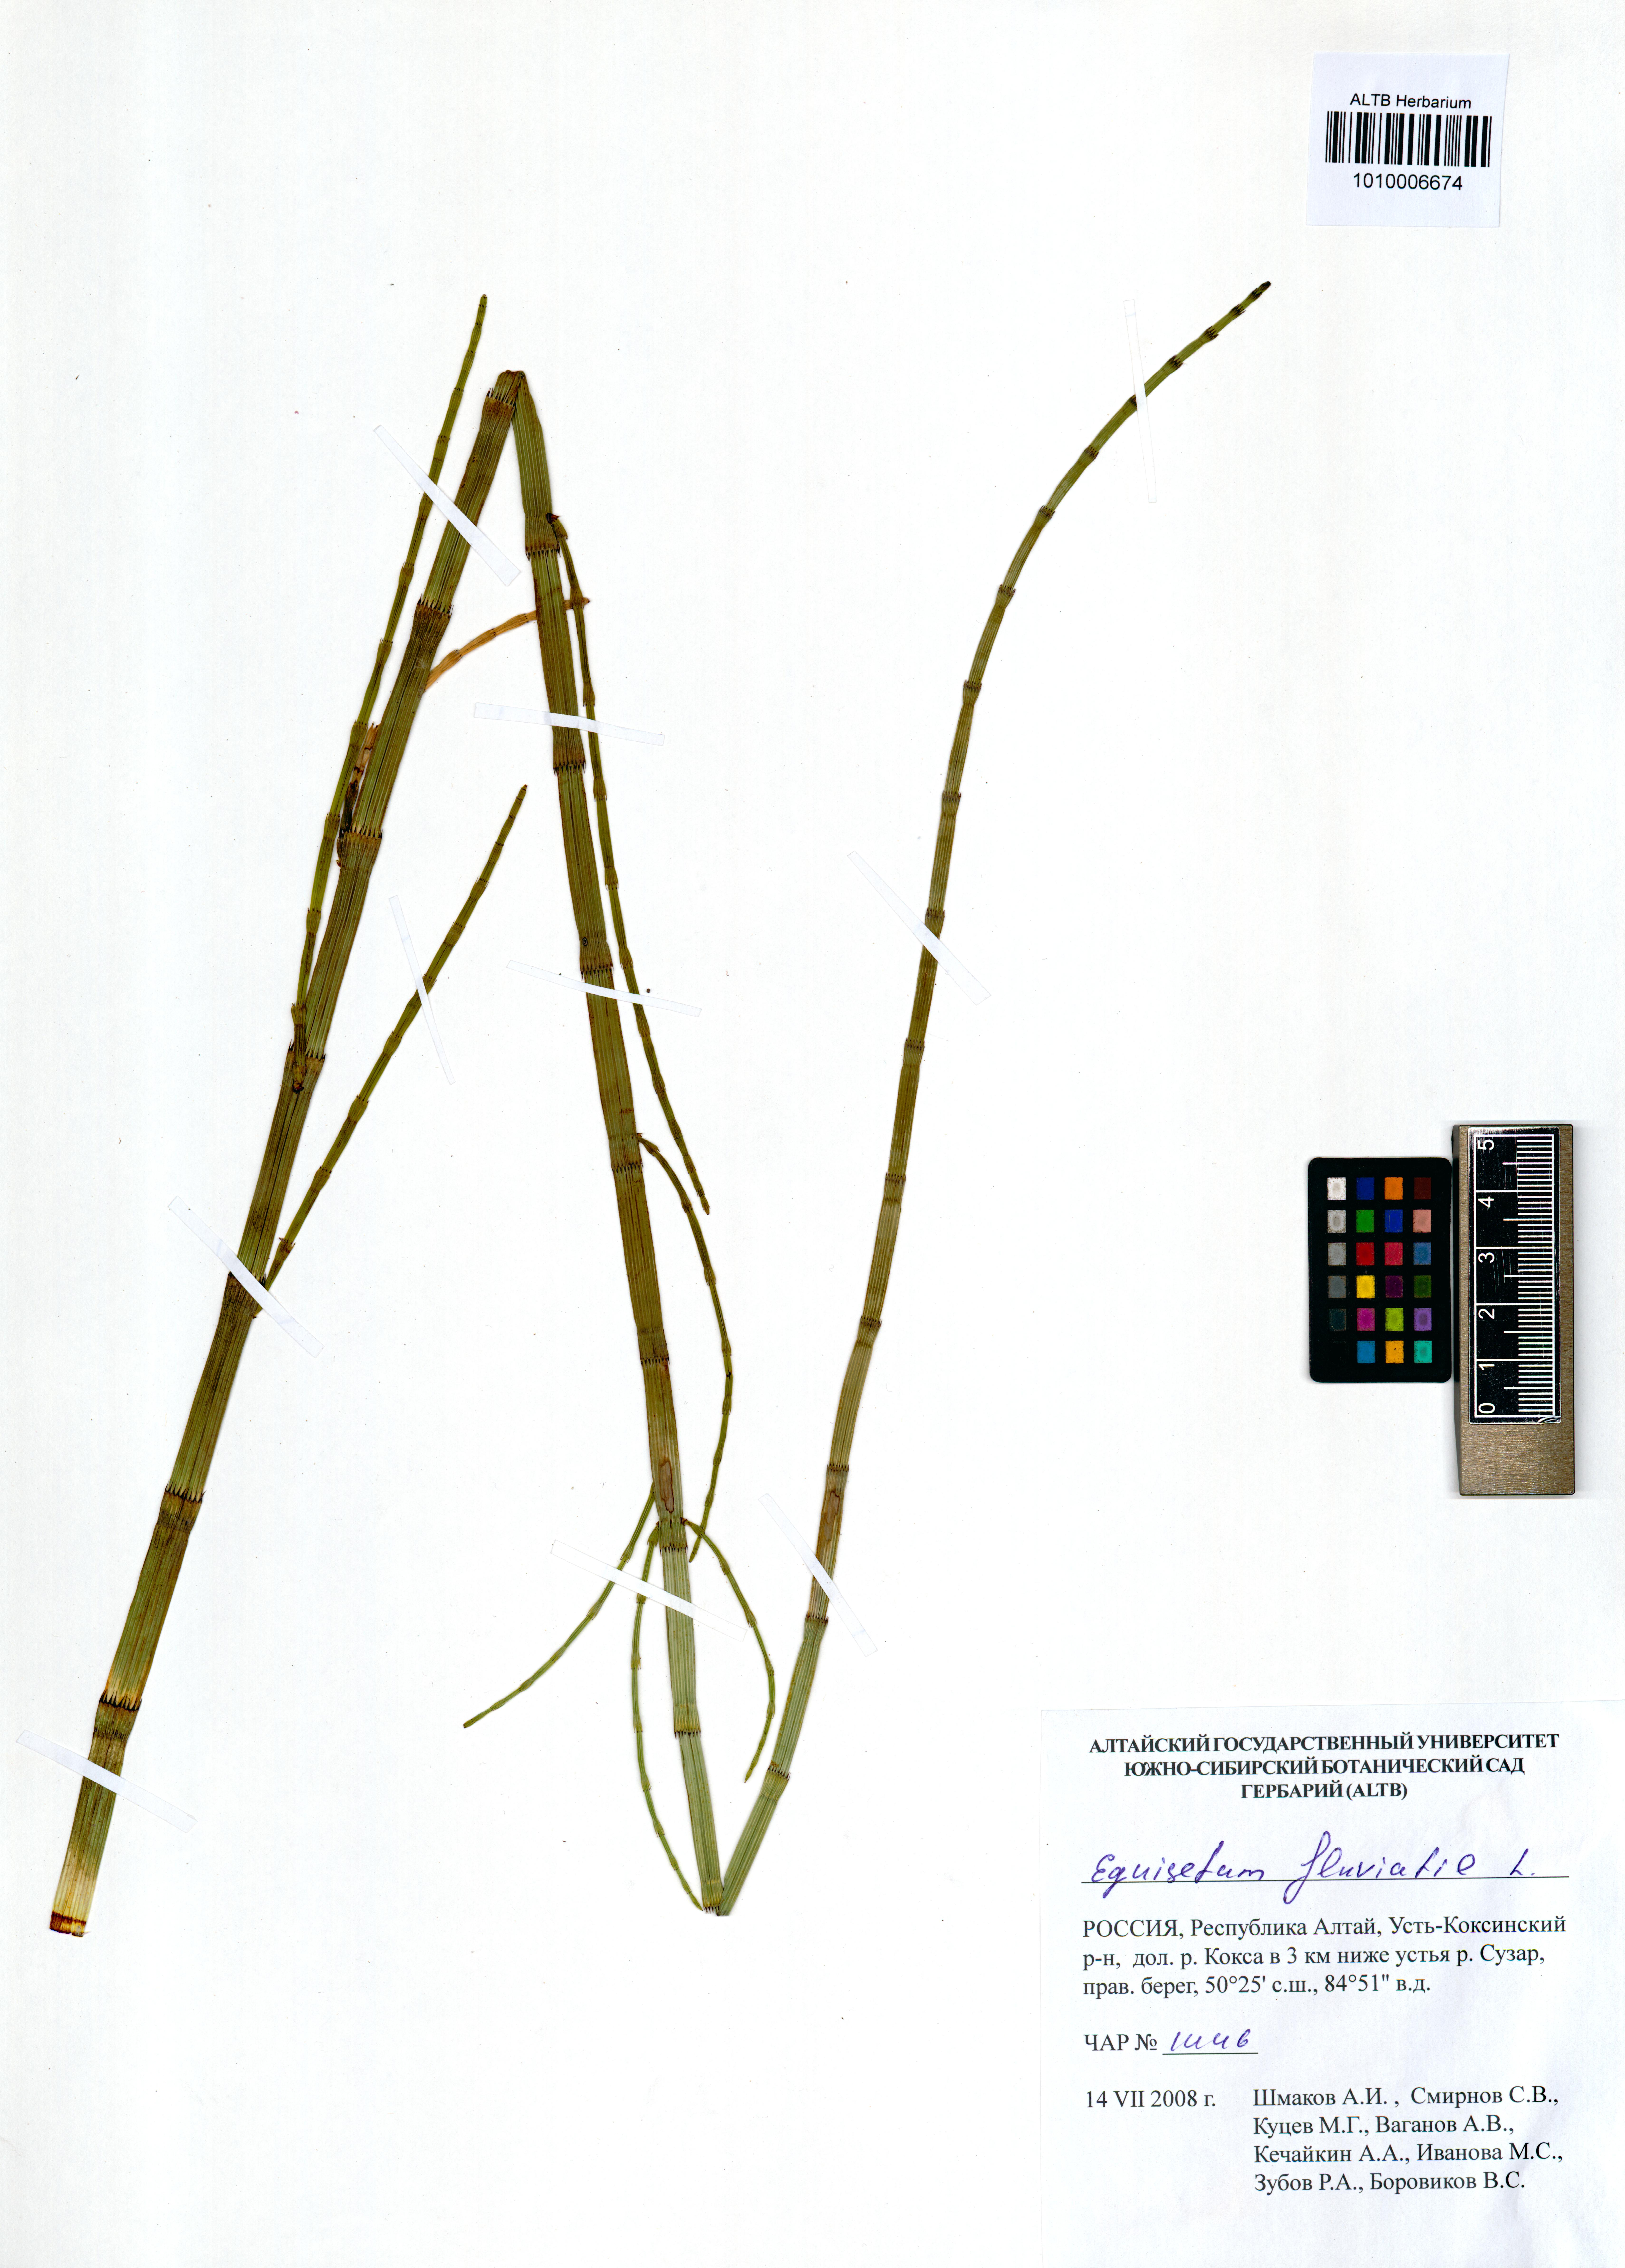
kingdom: Plantae
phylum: Tracheophyta
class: Polypodiopsida
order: Equisetales
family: Equisetaceae
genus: Equisetum
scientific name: Equisetum fluviatile
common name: Water horsetail
